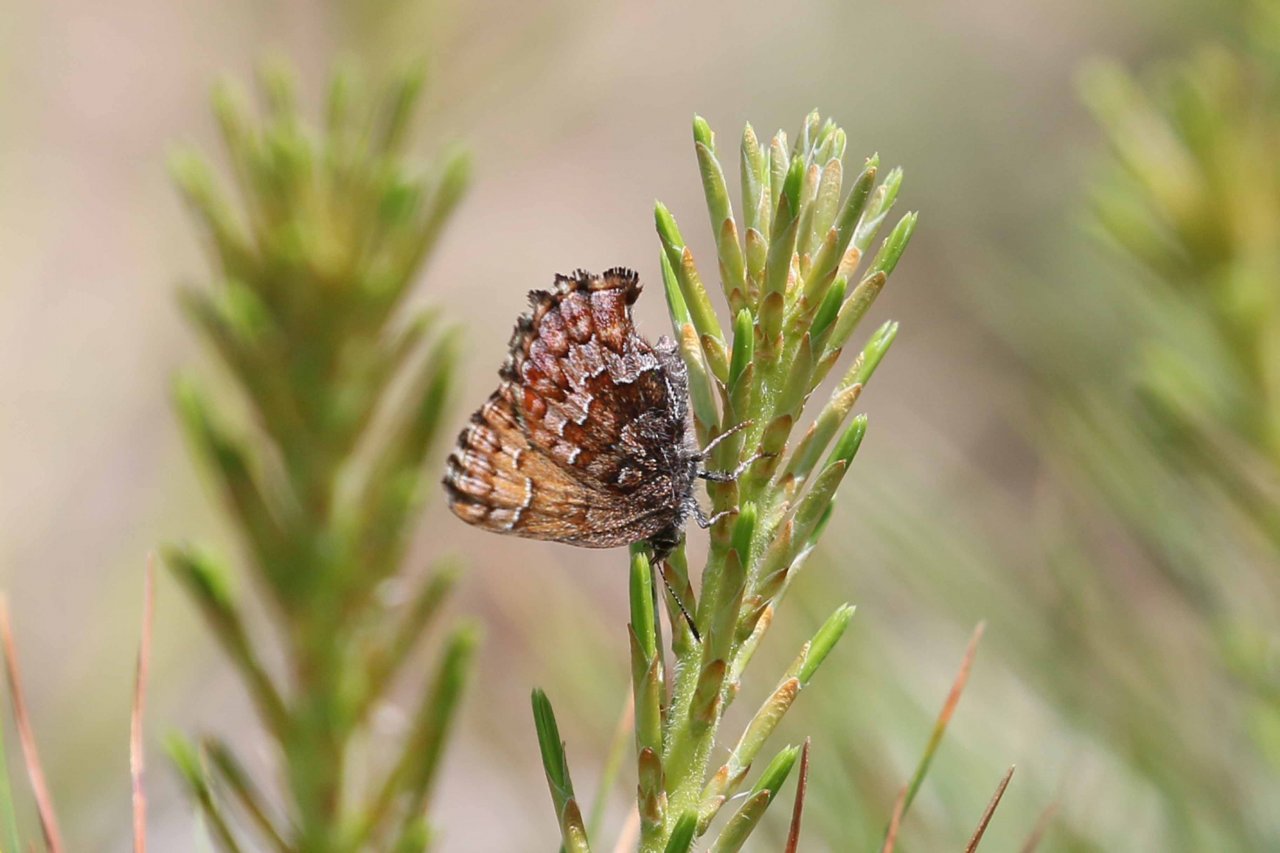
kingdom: Animalia
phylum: Arthropoda
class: Insecta
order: Lepidoptera
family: Lycaenidae
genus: Incisalia
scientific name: Incisalia niphon
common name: Eastern Pine Elfin
